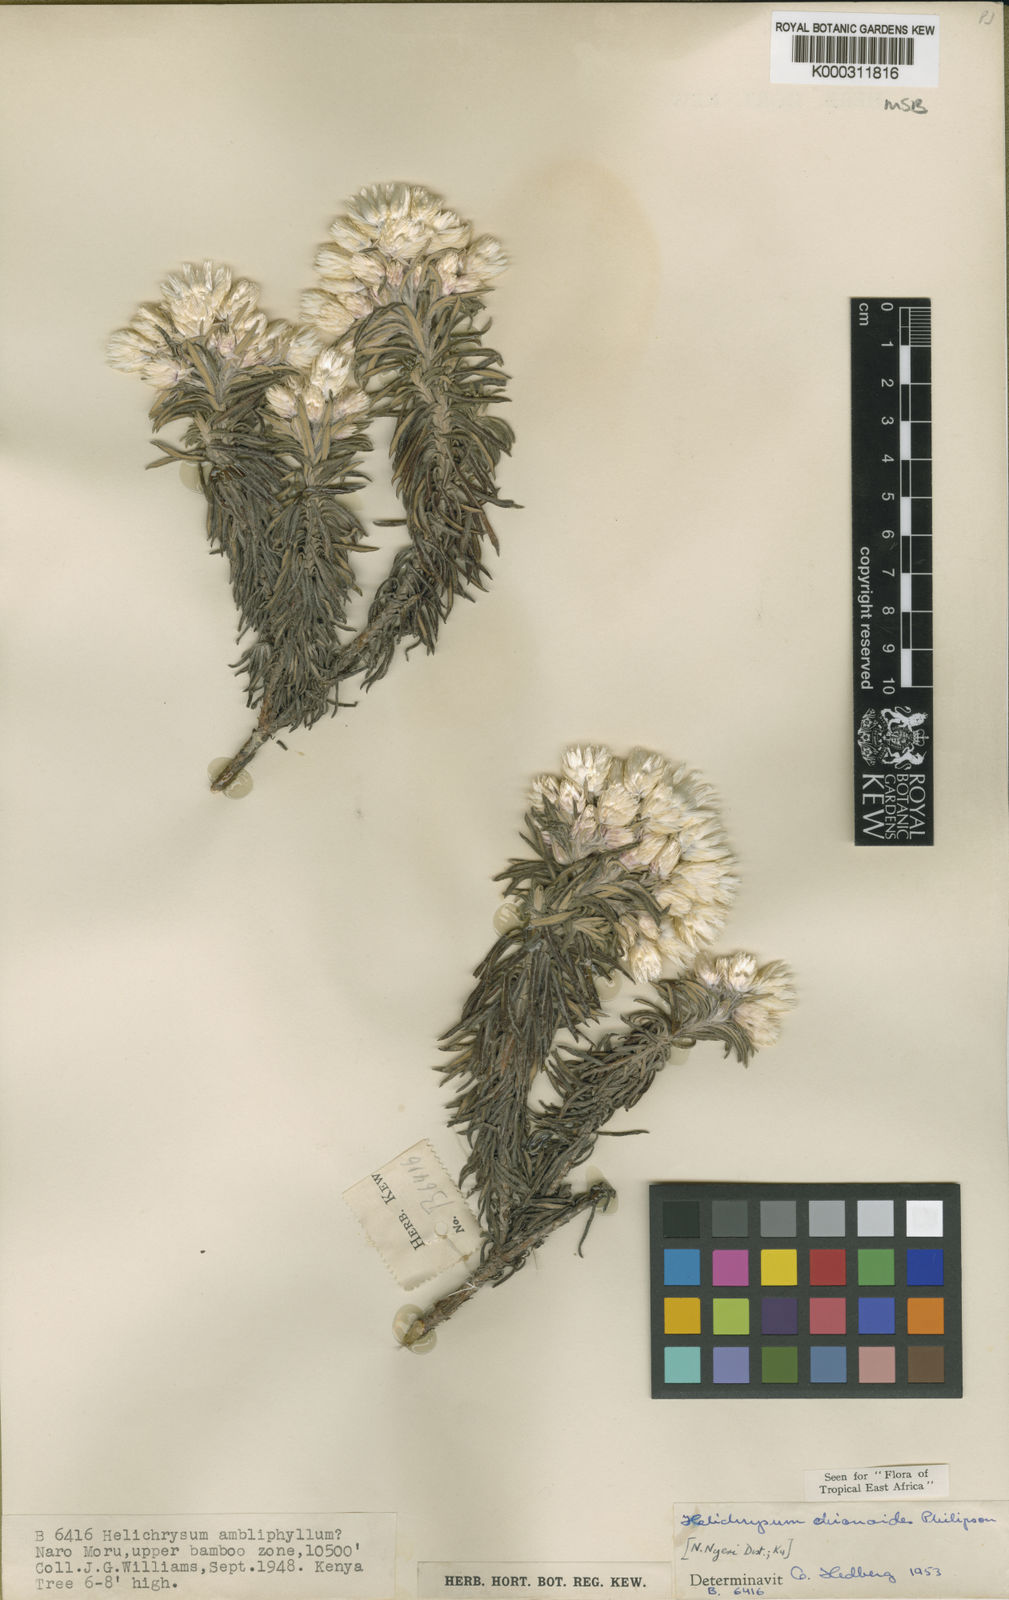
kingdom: Plantae
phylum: Tracheophyta
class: Magnoliopsida
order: Asterales
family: Asteraceae
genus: Helichrysum
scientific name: Helichrysum chionoides
